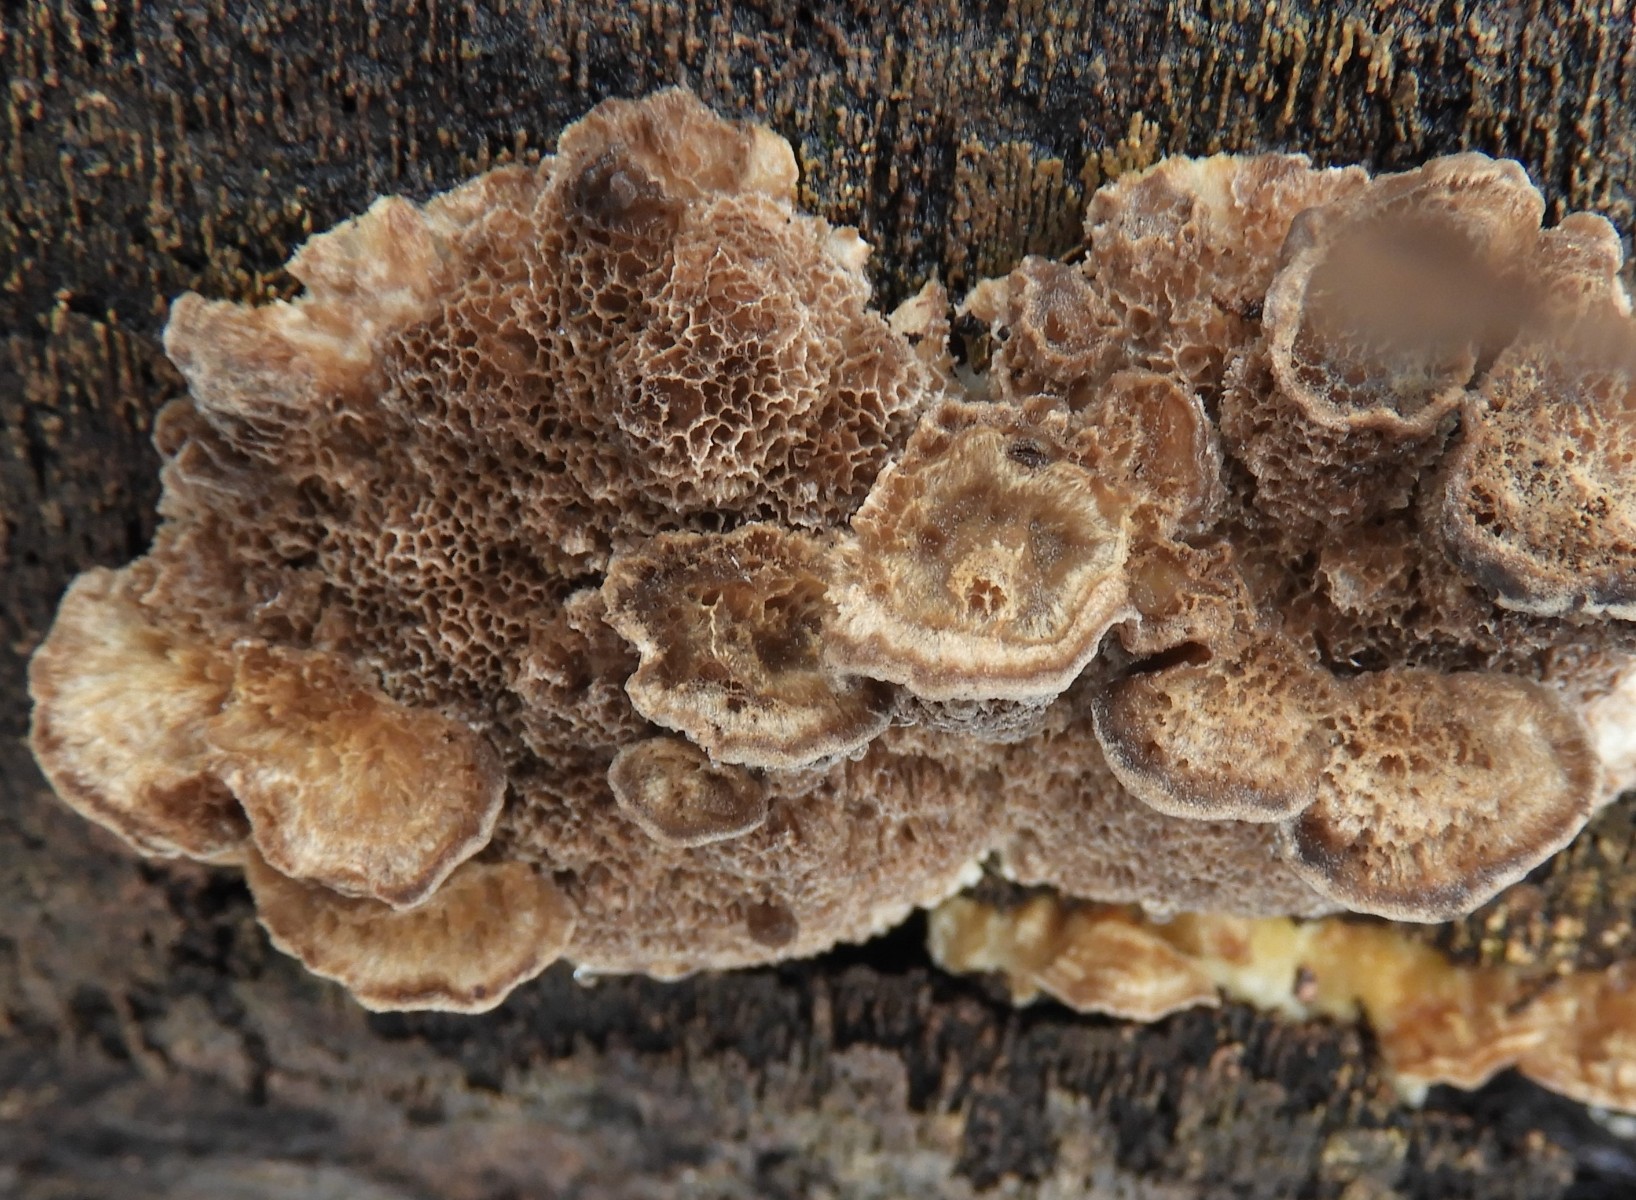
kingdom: Fungi
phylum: Basidiomycota
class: Agaricomycetes
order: Polyporales
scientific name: Polyporales
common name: poresvampordenen
